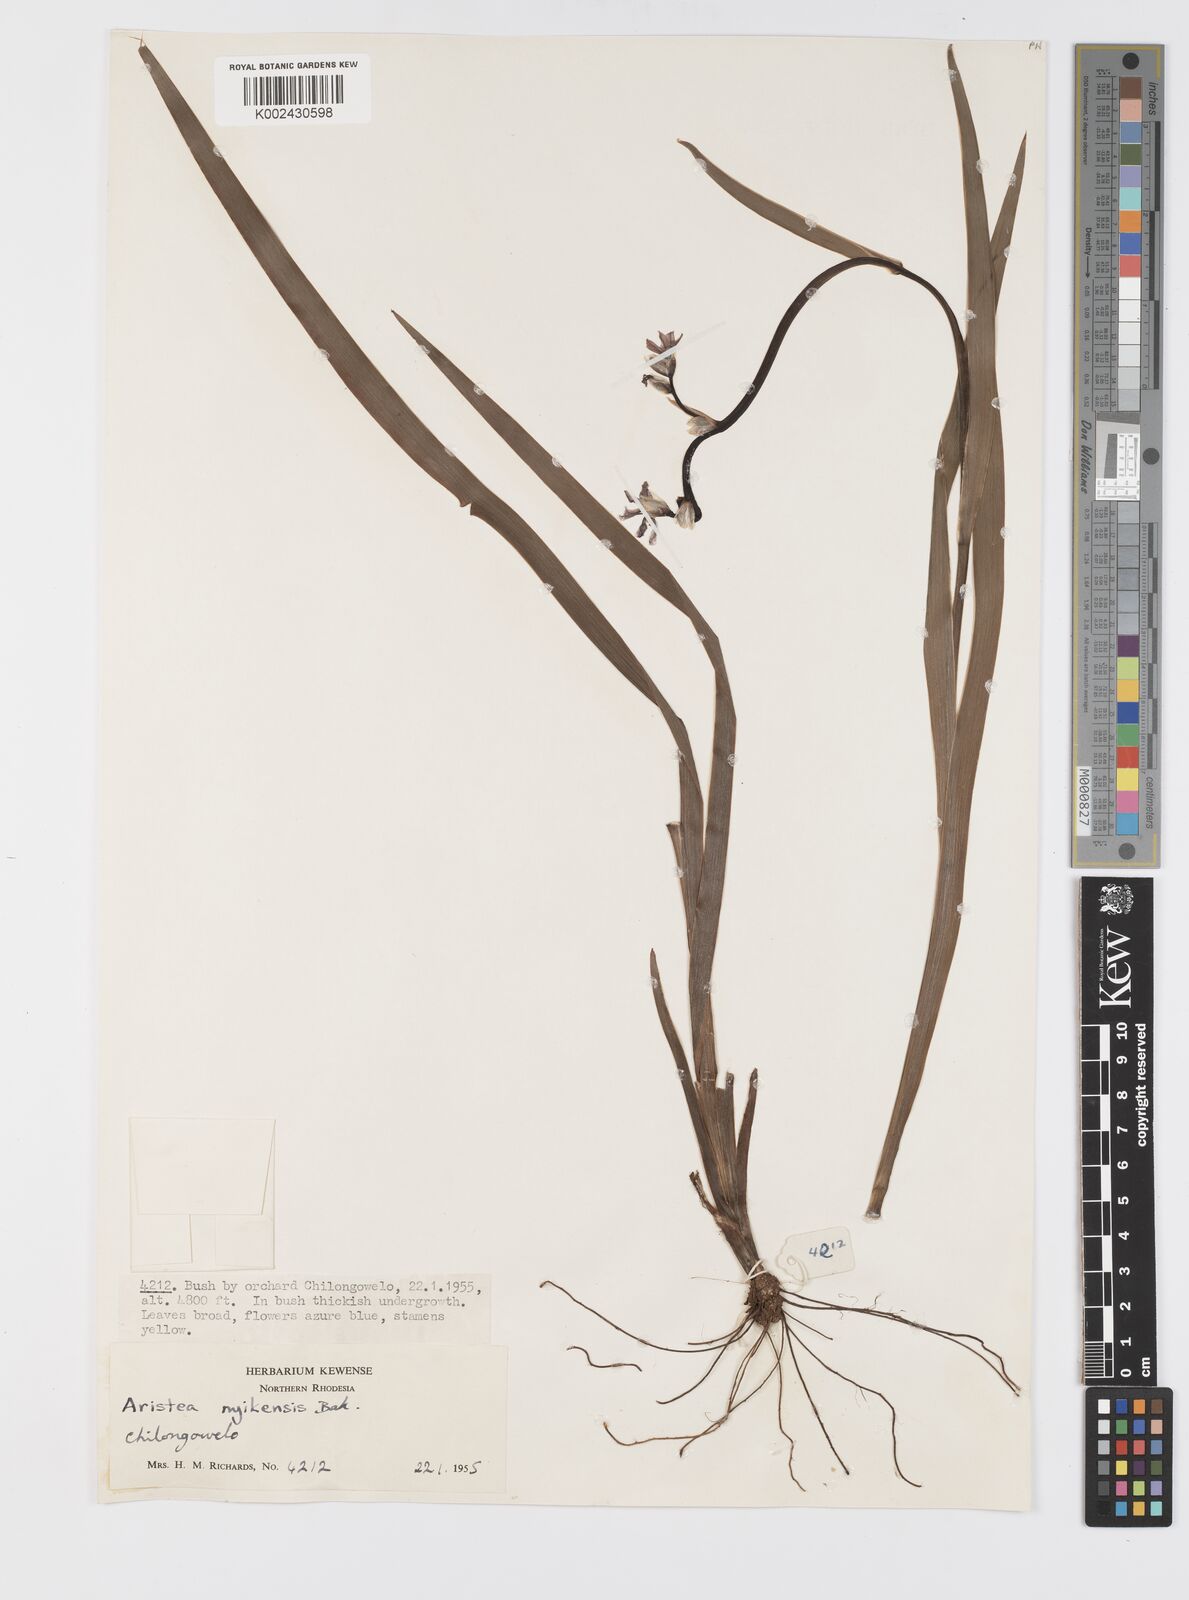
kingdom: Plantae
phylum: Tracheophyta
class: Liliopsida
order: Asparagales
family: Iridaceae
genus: Aristea
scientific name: Aristea nyikensis
